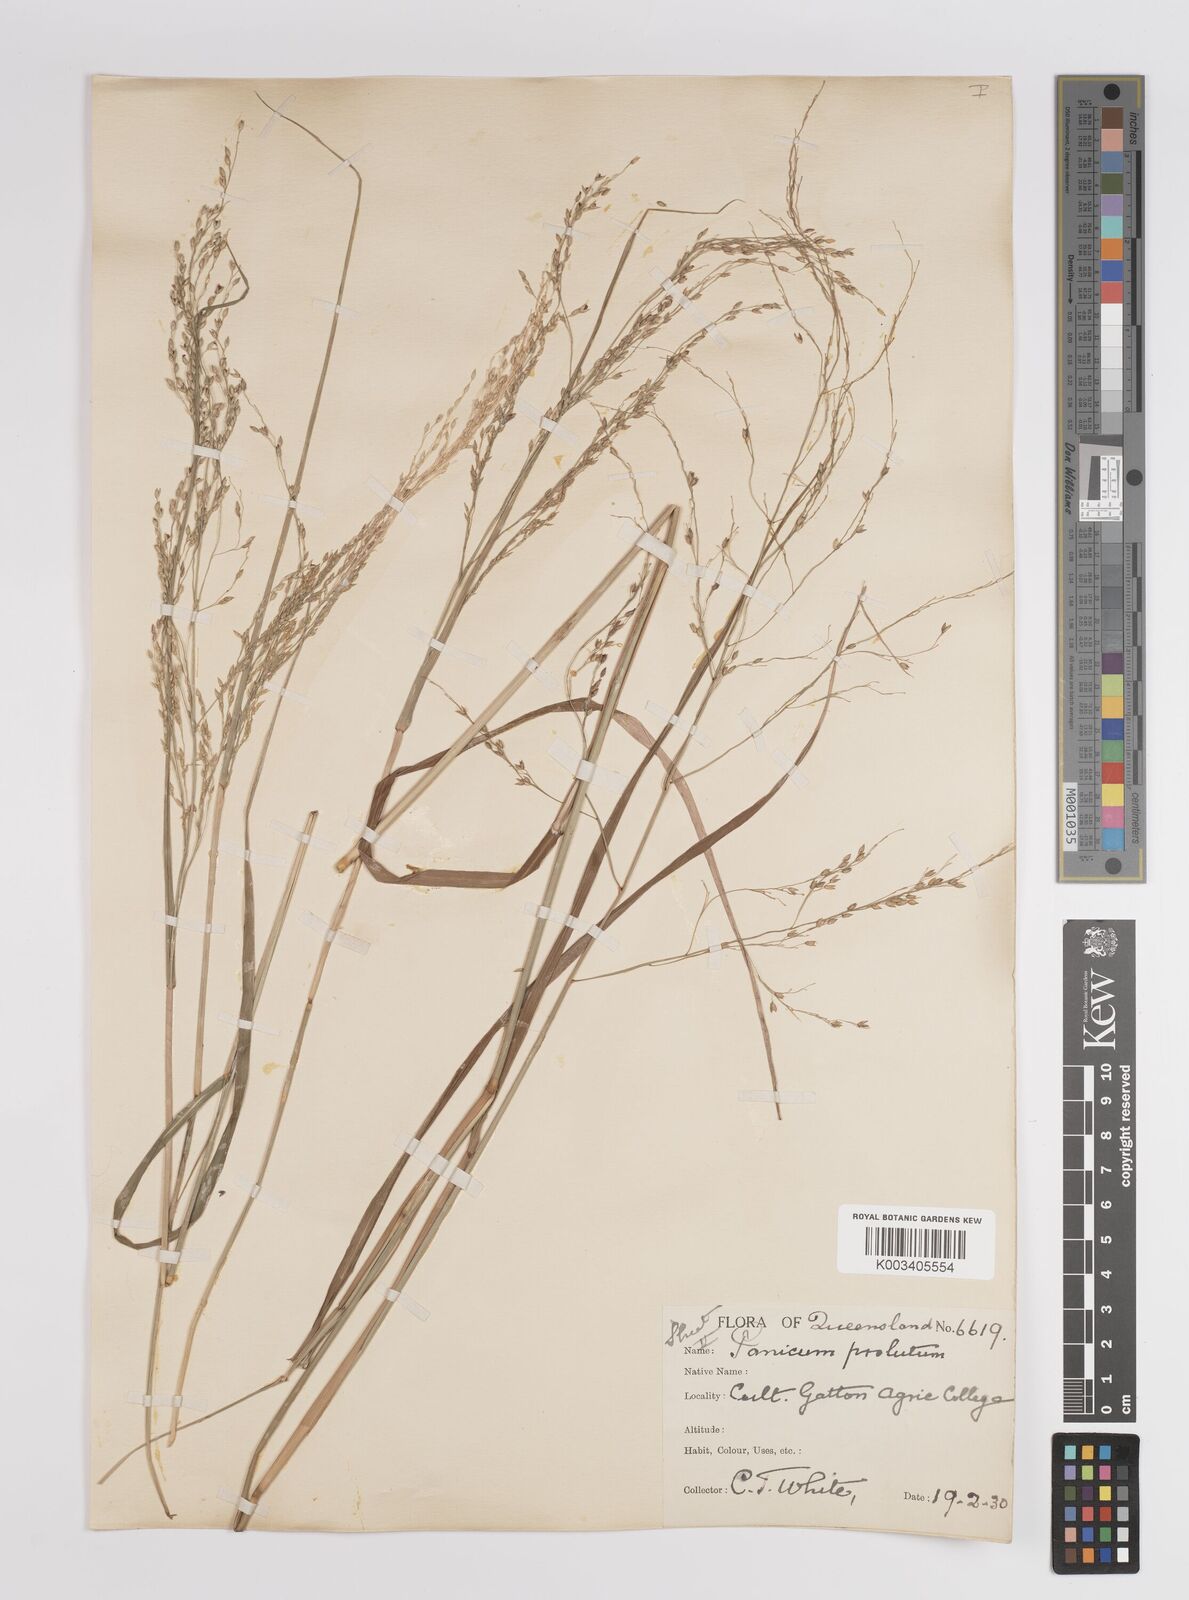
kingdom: Plantae
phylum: Tracheophyta
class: Liliopsida
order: Poales
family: Poaceae
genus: Panicum
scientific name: Panicum
